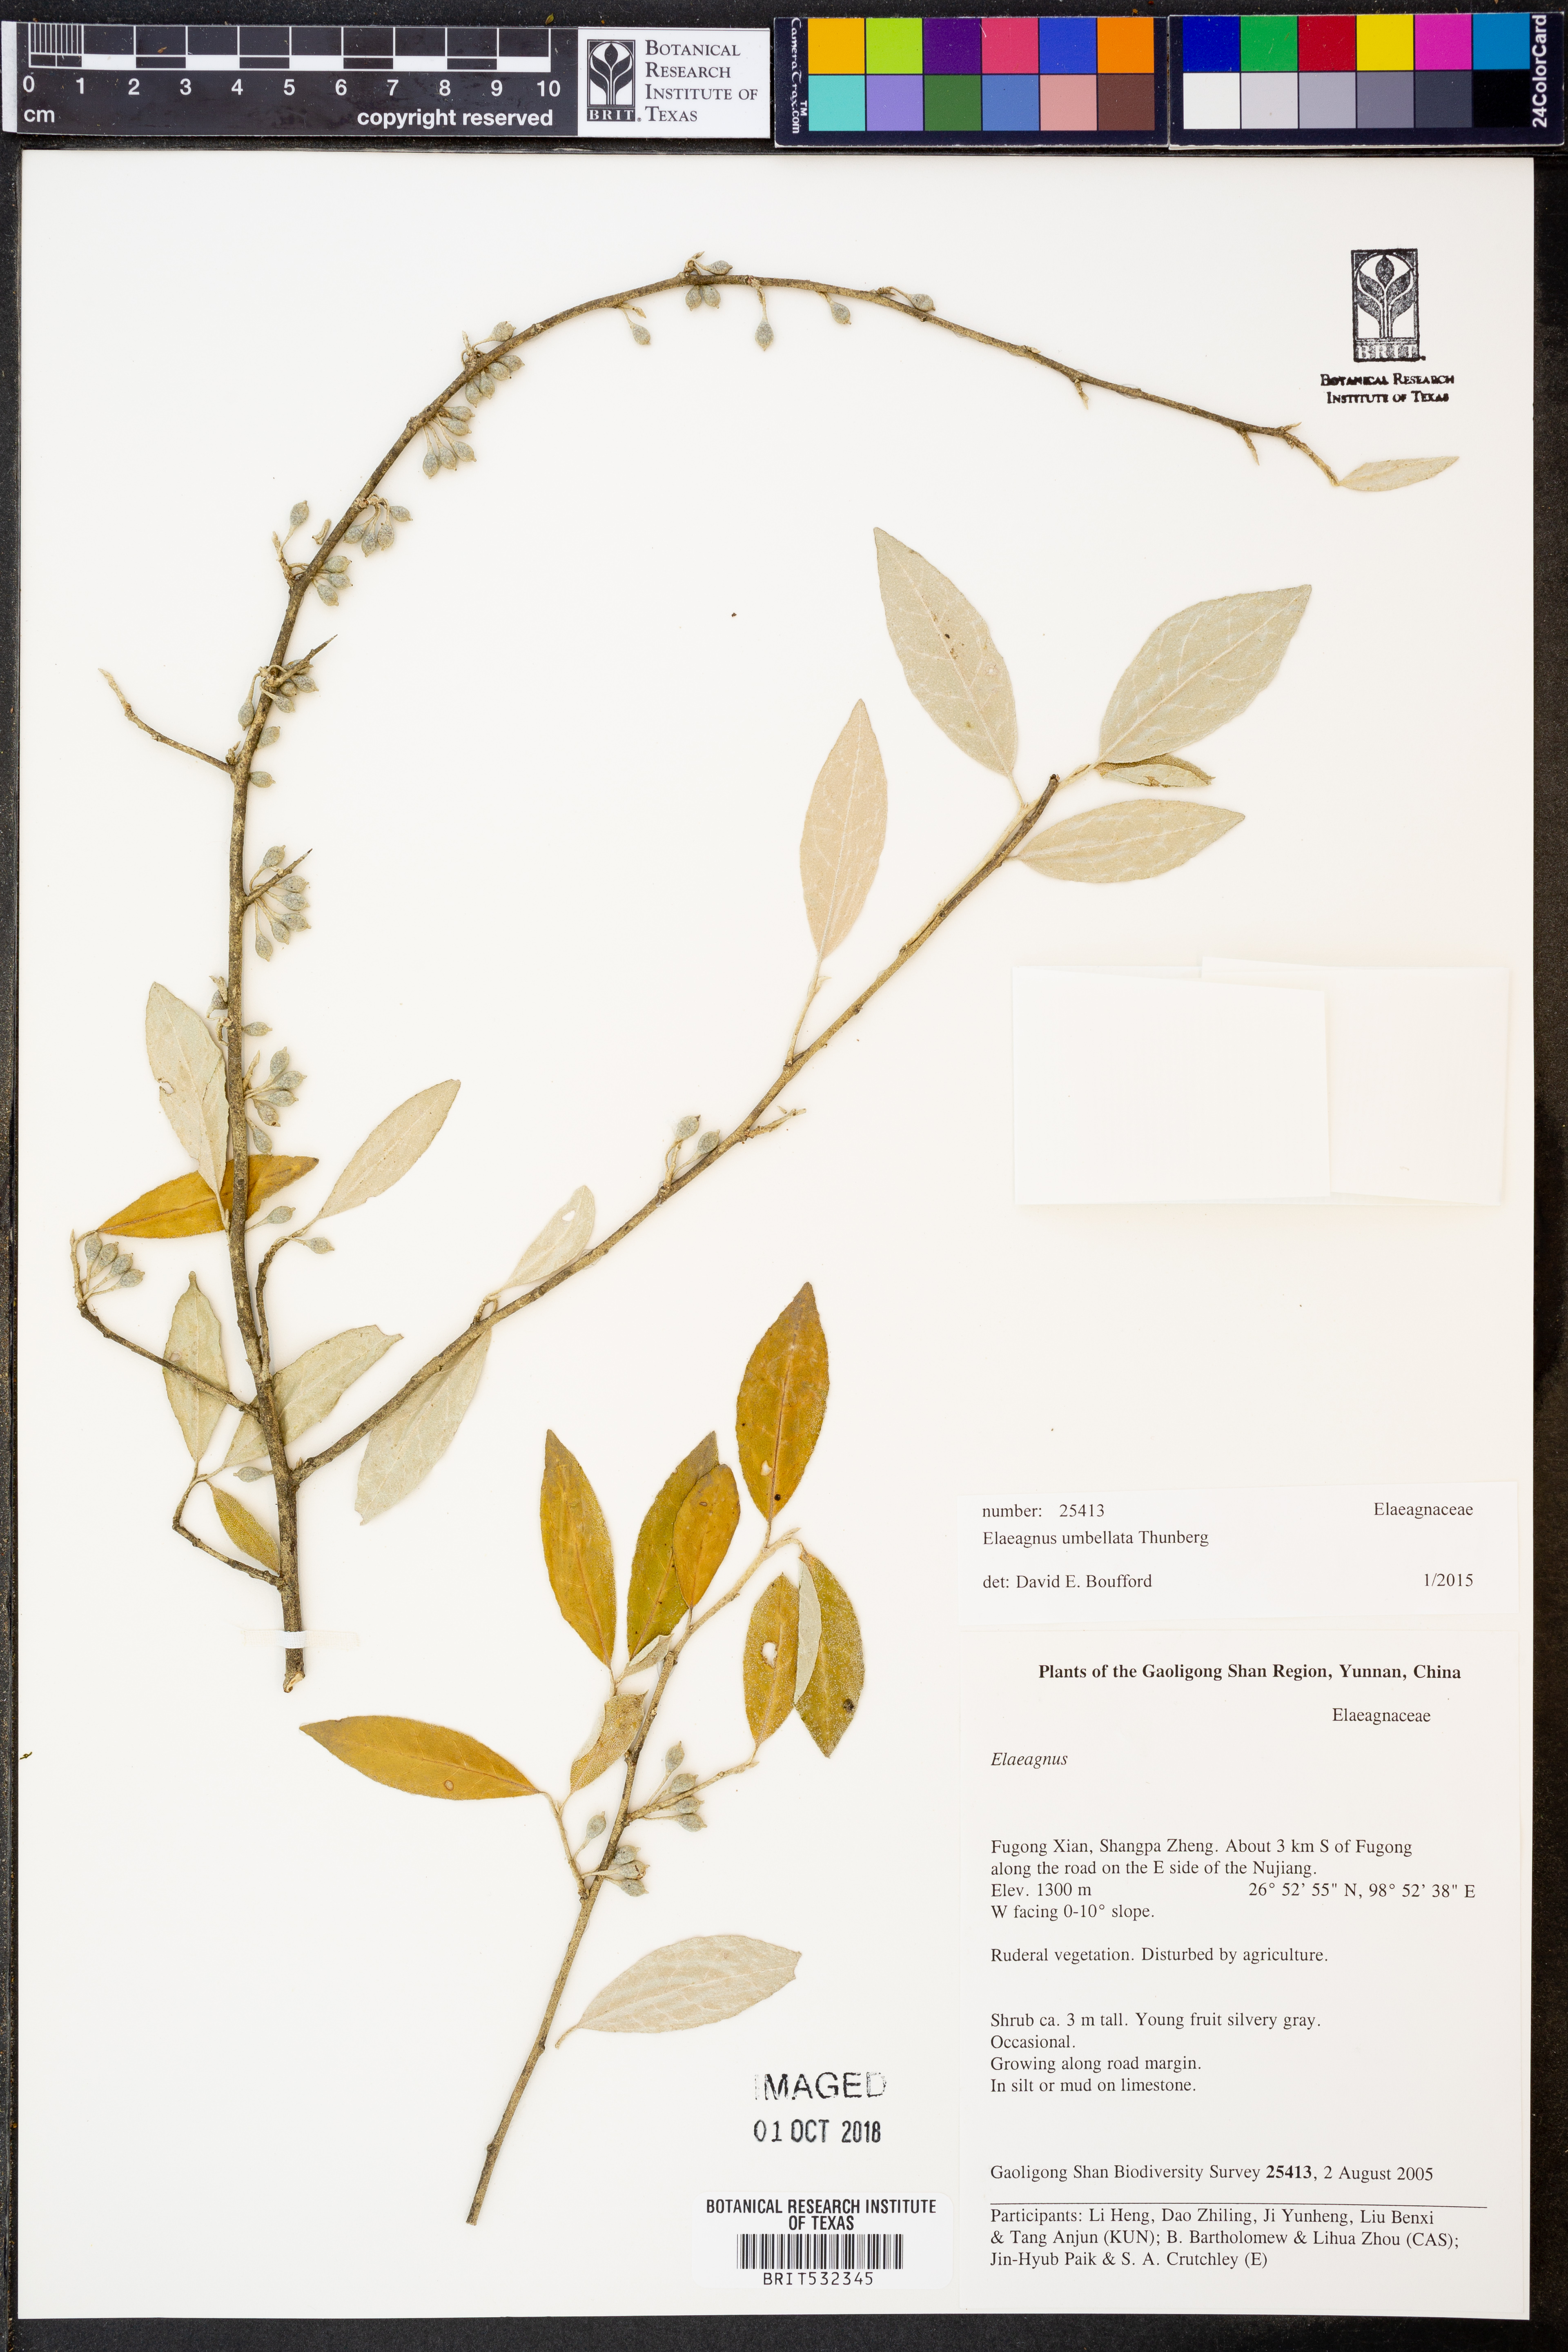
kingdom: Plantae
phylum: Tracheophyta
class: Magnoliopsida
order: Rosales
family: Elaeagnaceae
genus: Elaeagnus
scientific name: Elaeagnus umbellata
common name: Autumn olive
